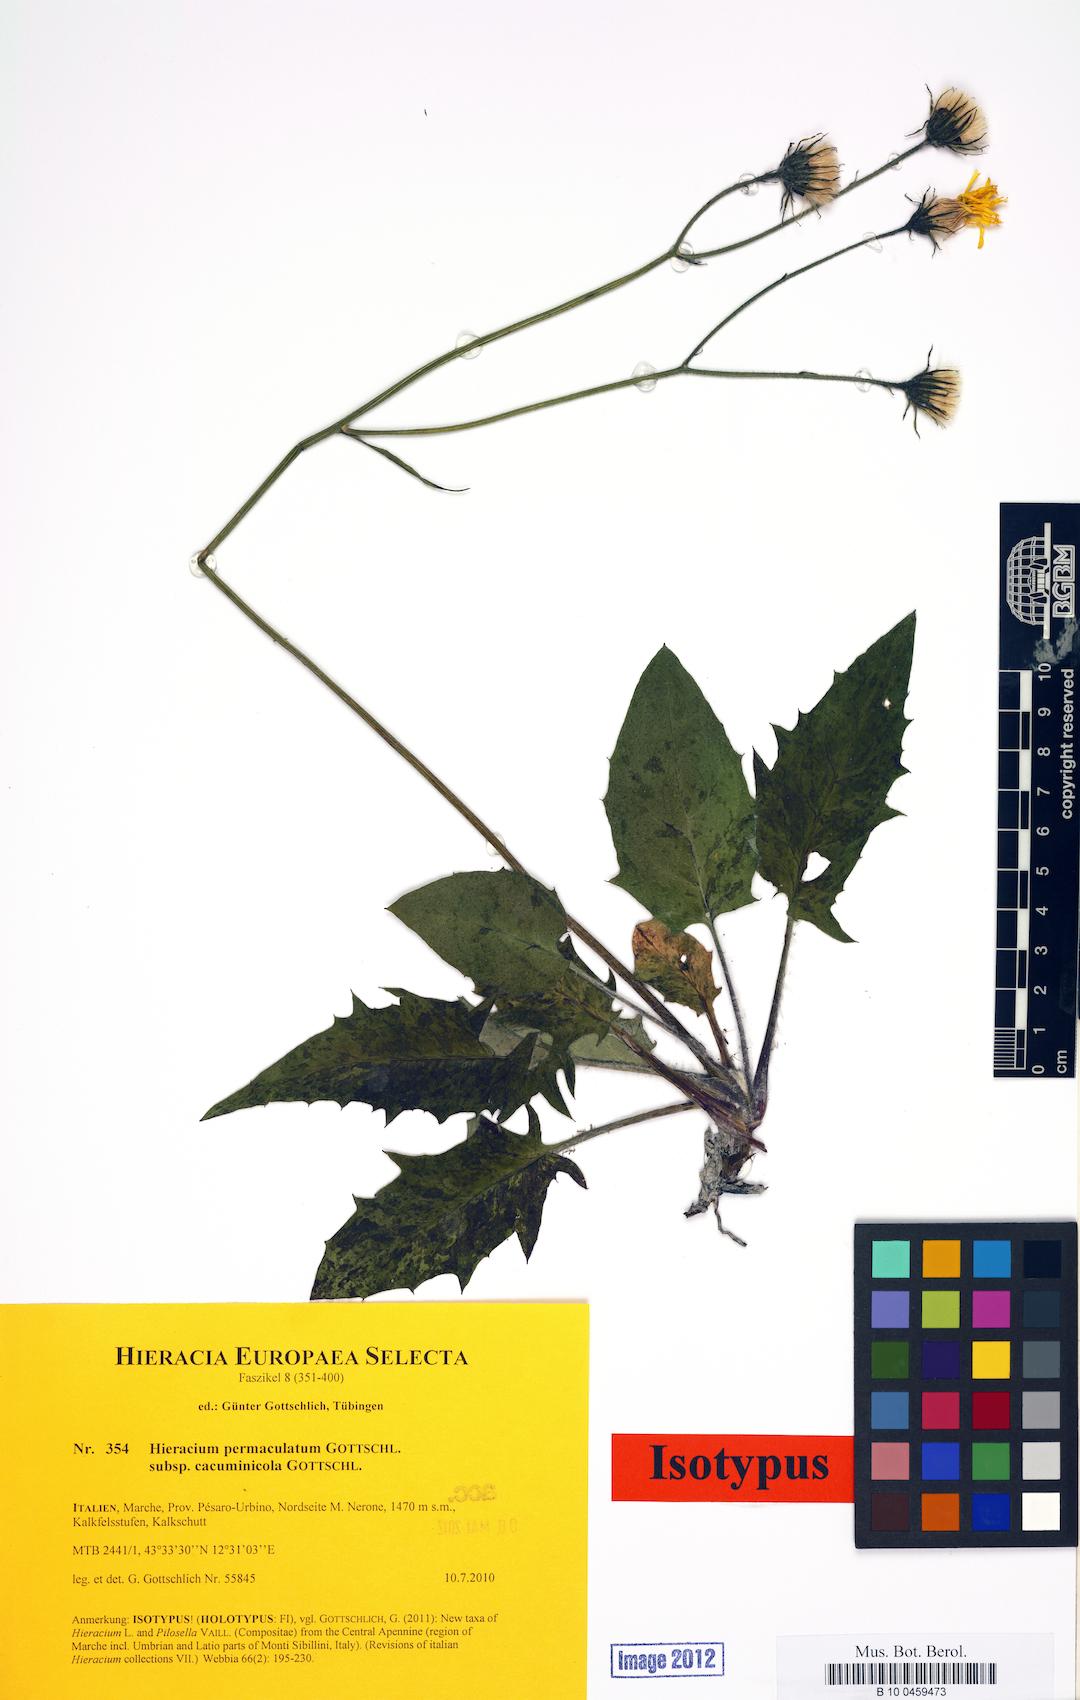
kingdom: Plantae
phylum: Tracheophyta
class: Magnoliopsida
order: Asterales
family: Asteraceae
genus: Hieracium
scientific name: Hieracium permaculatum
